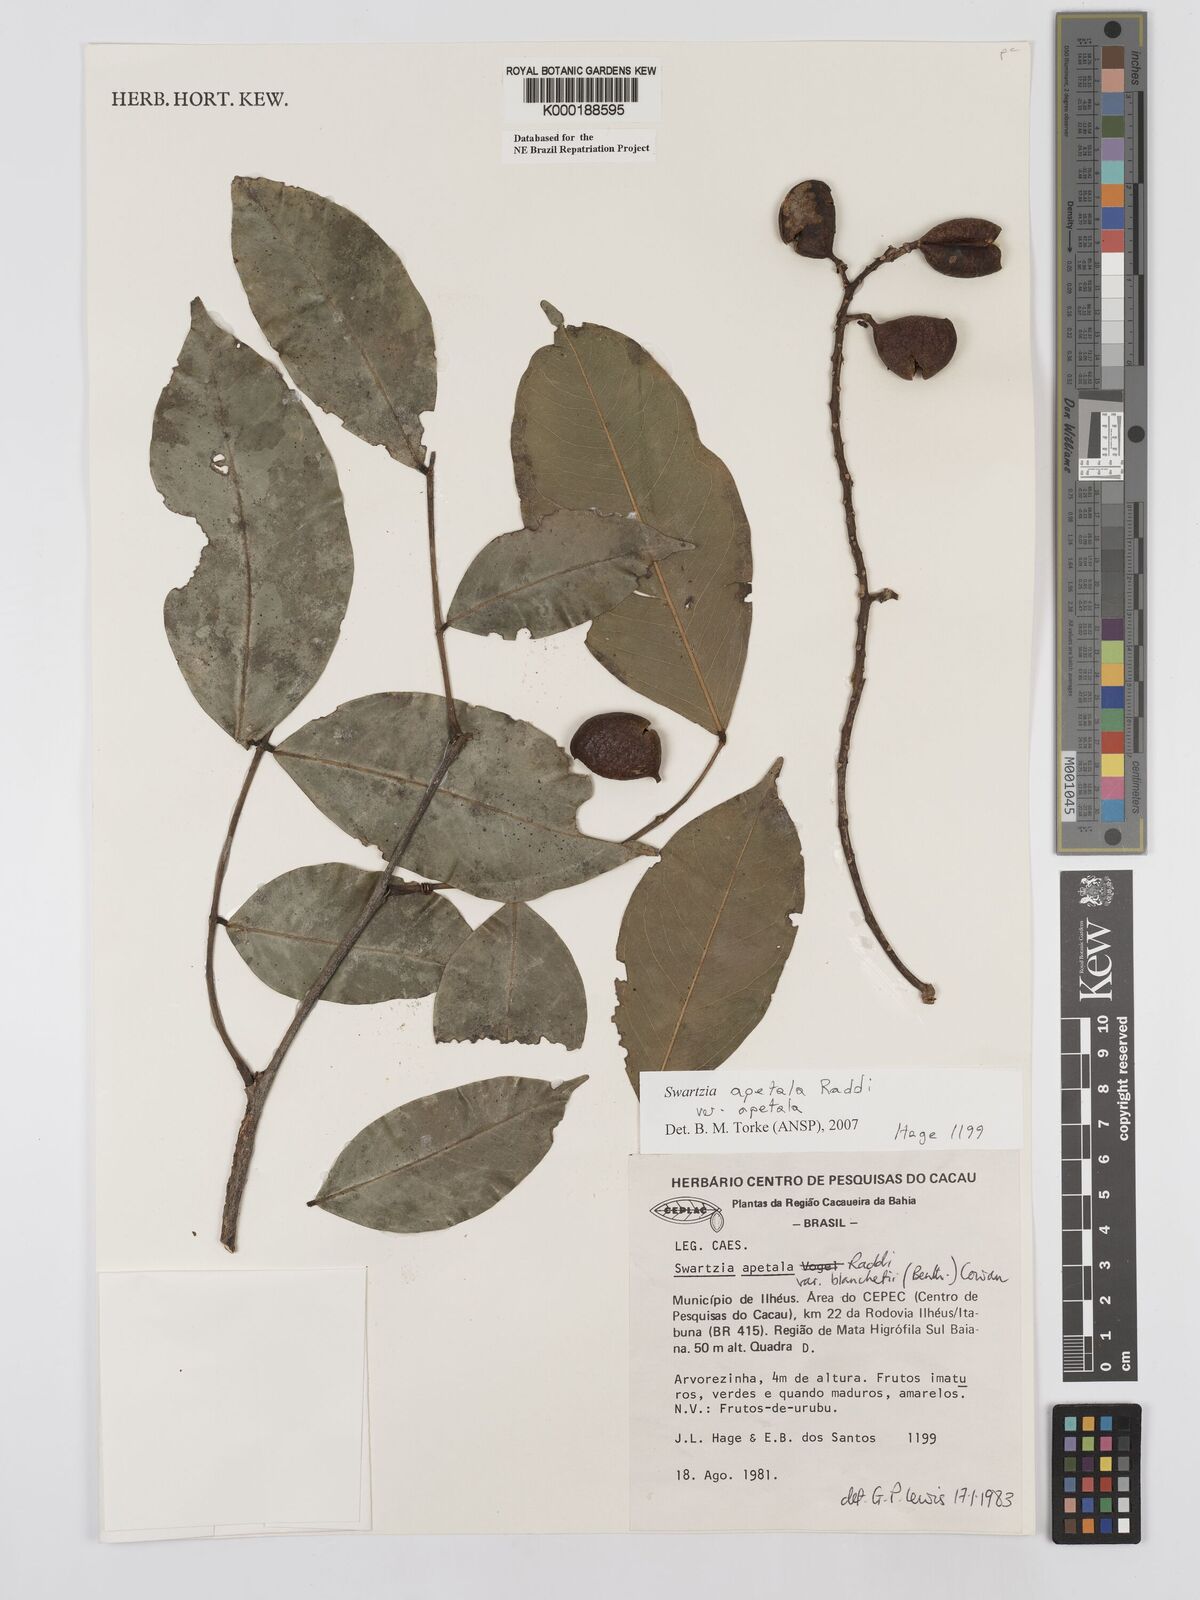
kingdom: Plantae
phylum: Tracheophyta
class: Magnoliopsida
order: Fabales
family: Fabaceae
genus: Swartzia
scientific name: Swartzia apetala
